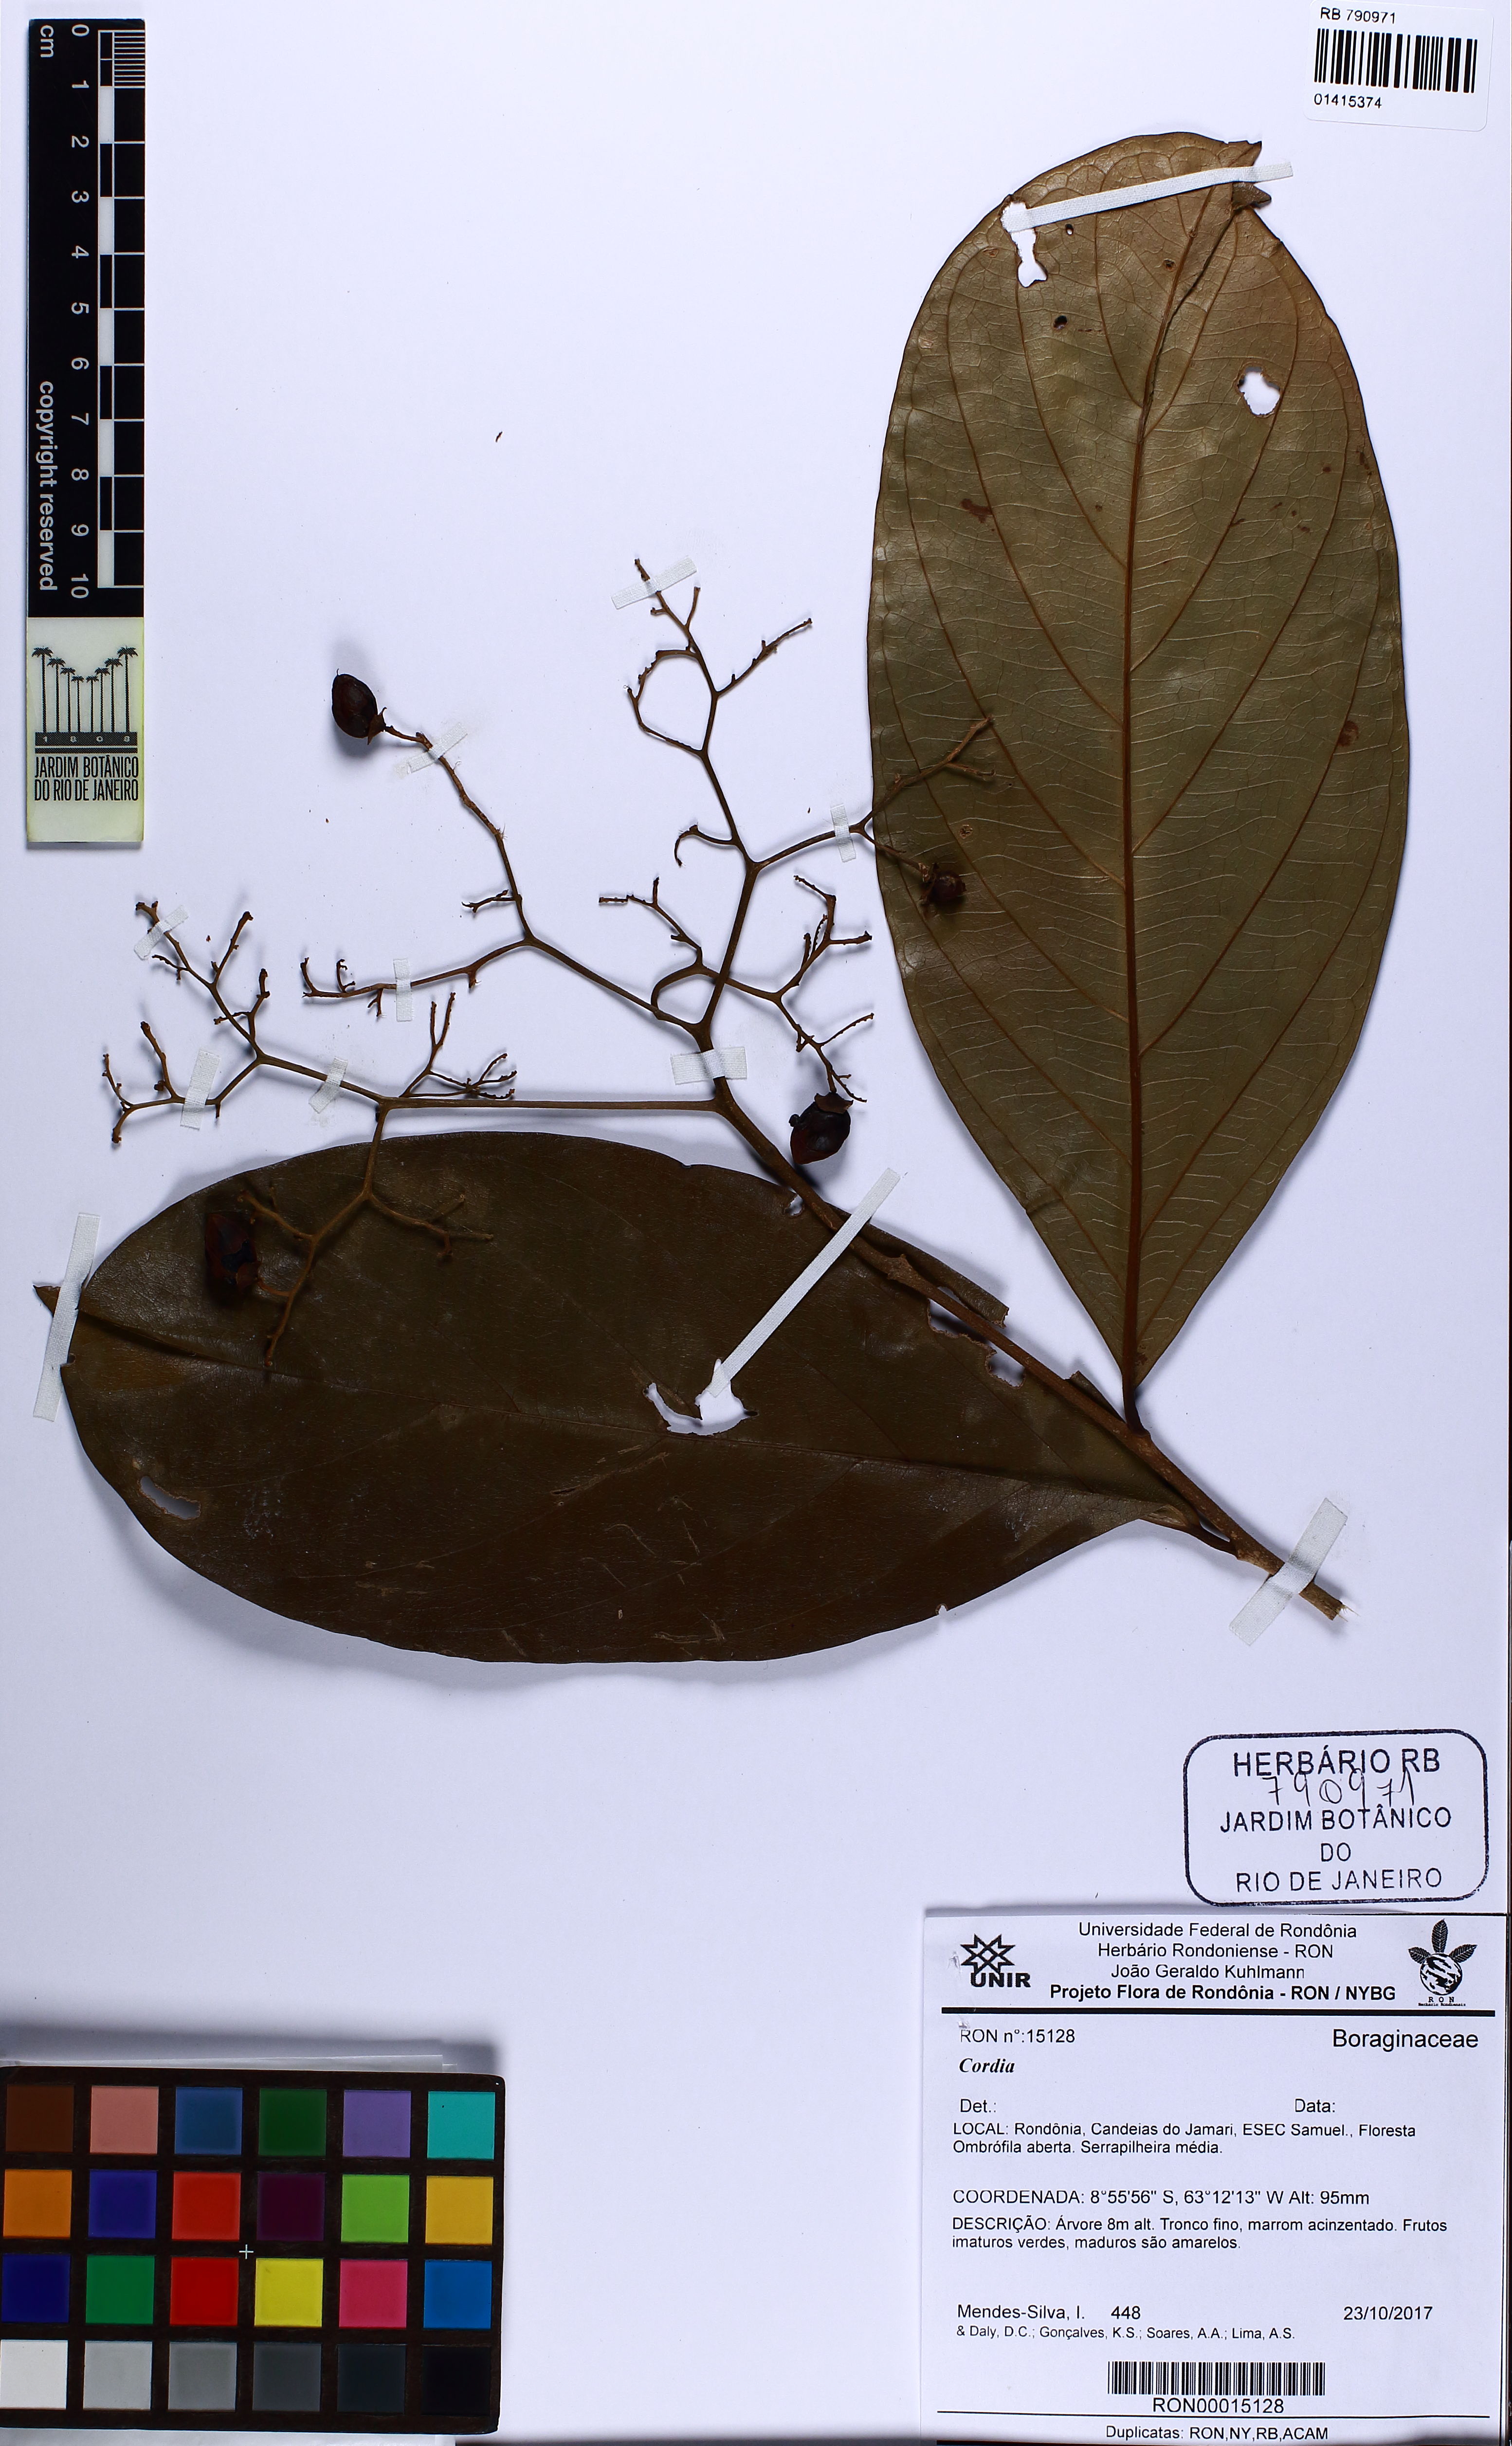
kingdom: Plantae
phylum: Tracheophyta
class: Magnoliopsida
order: Boraginales
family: Cordiaceae
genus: Cordia
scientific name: Cordia
